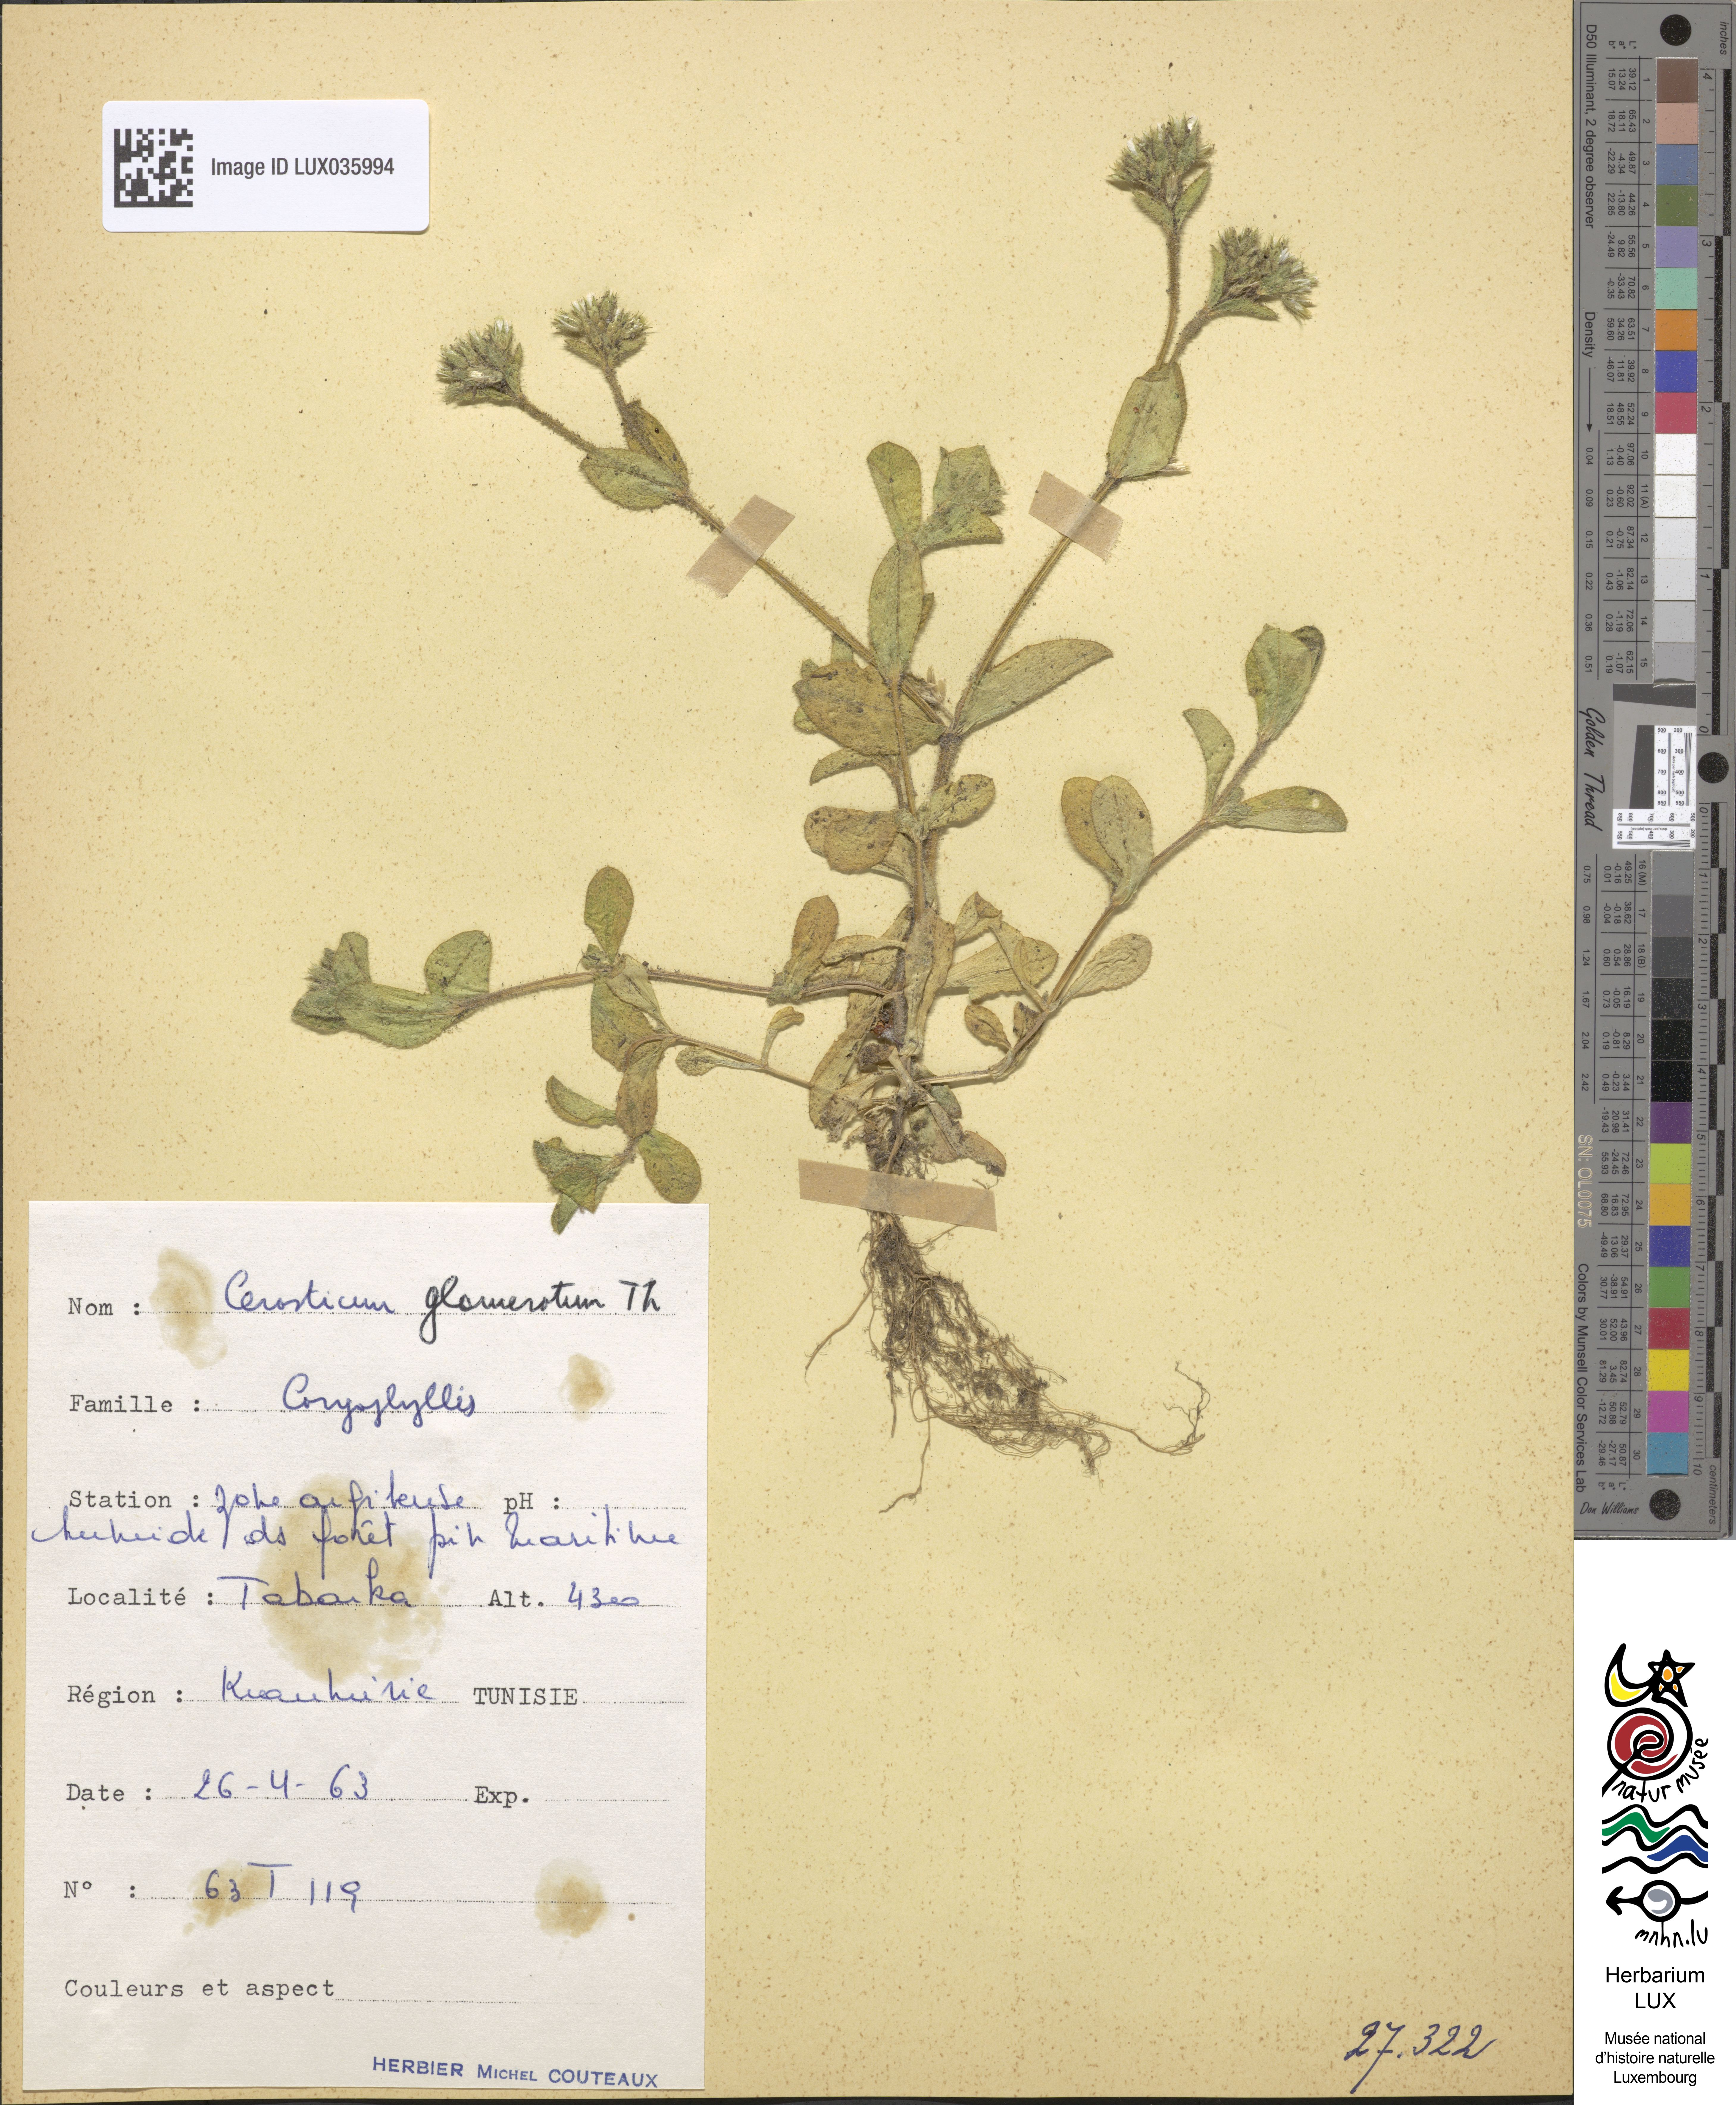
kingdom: Plantae
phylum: Tracheophyta
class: Magnoliopsida
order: Caryophyllales
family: Caryophyllaceae
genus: Cerastium
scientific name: Cerastium glomeratum
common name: Sticky chickweed
